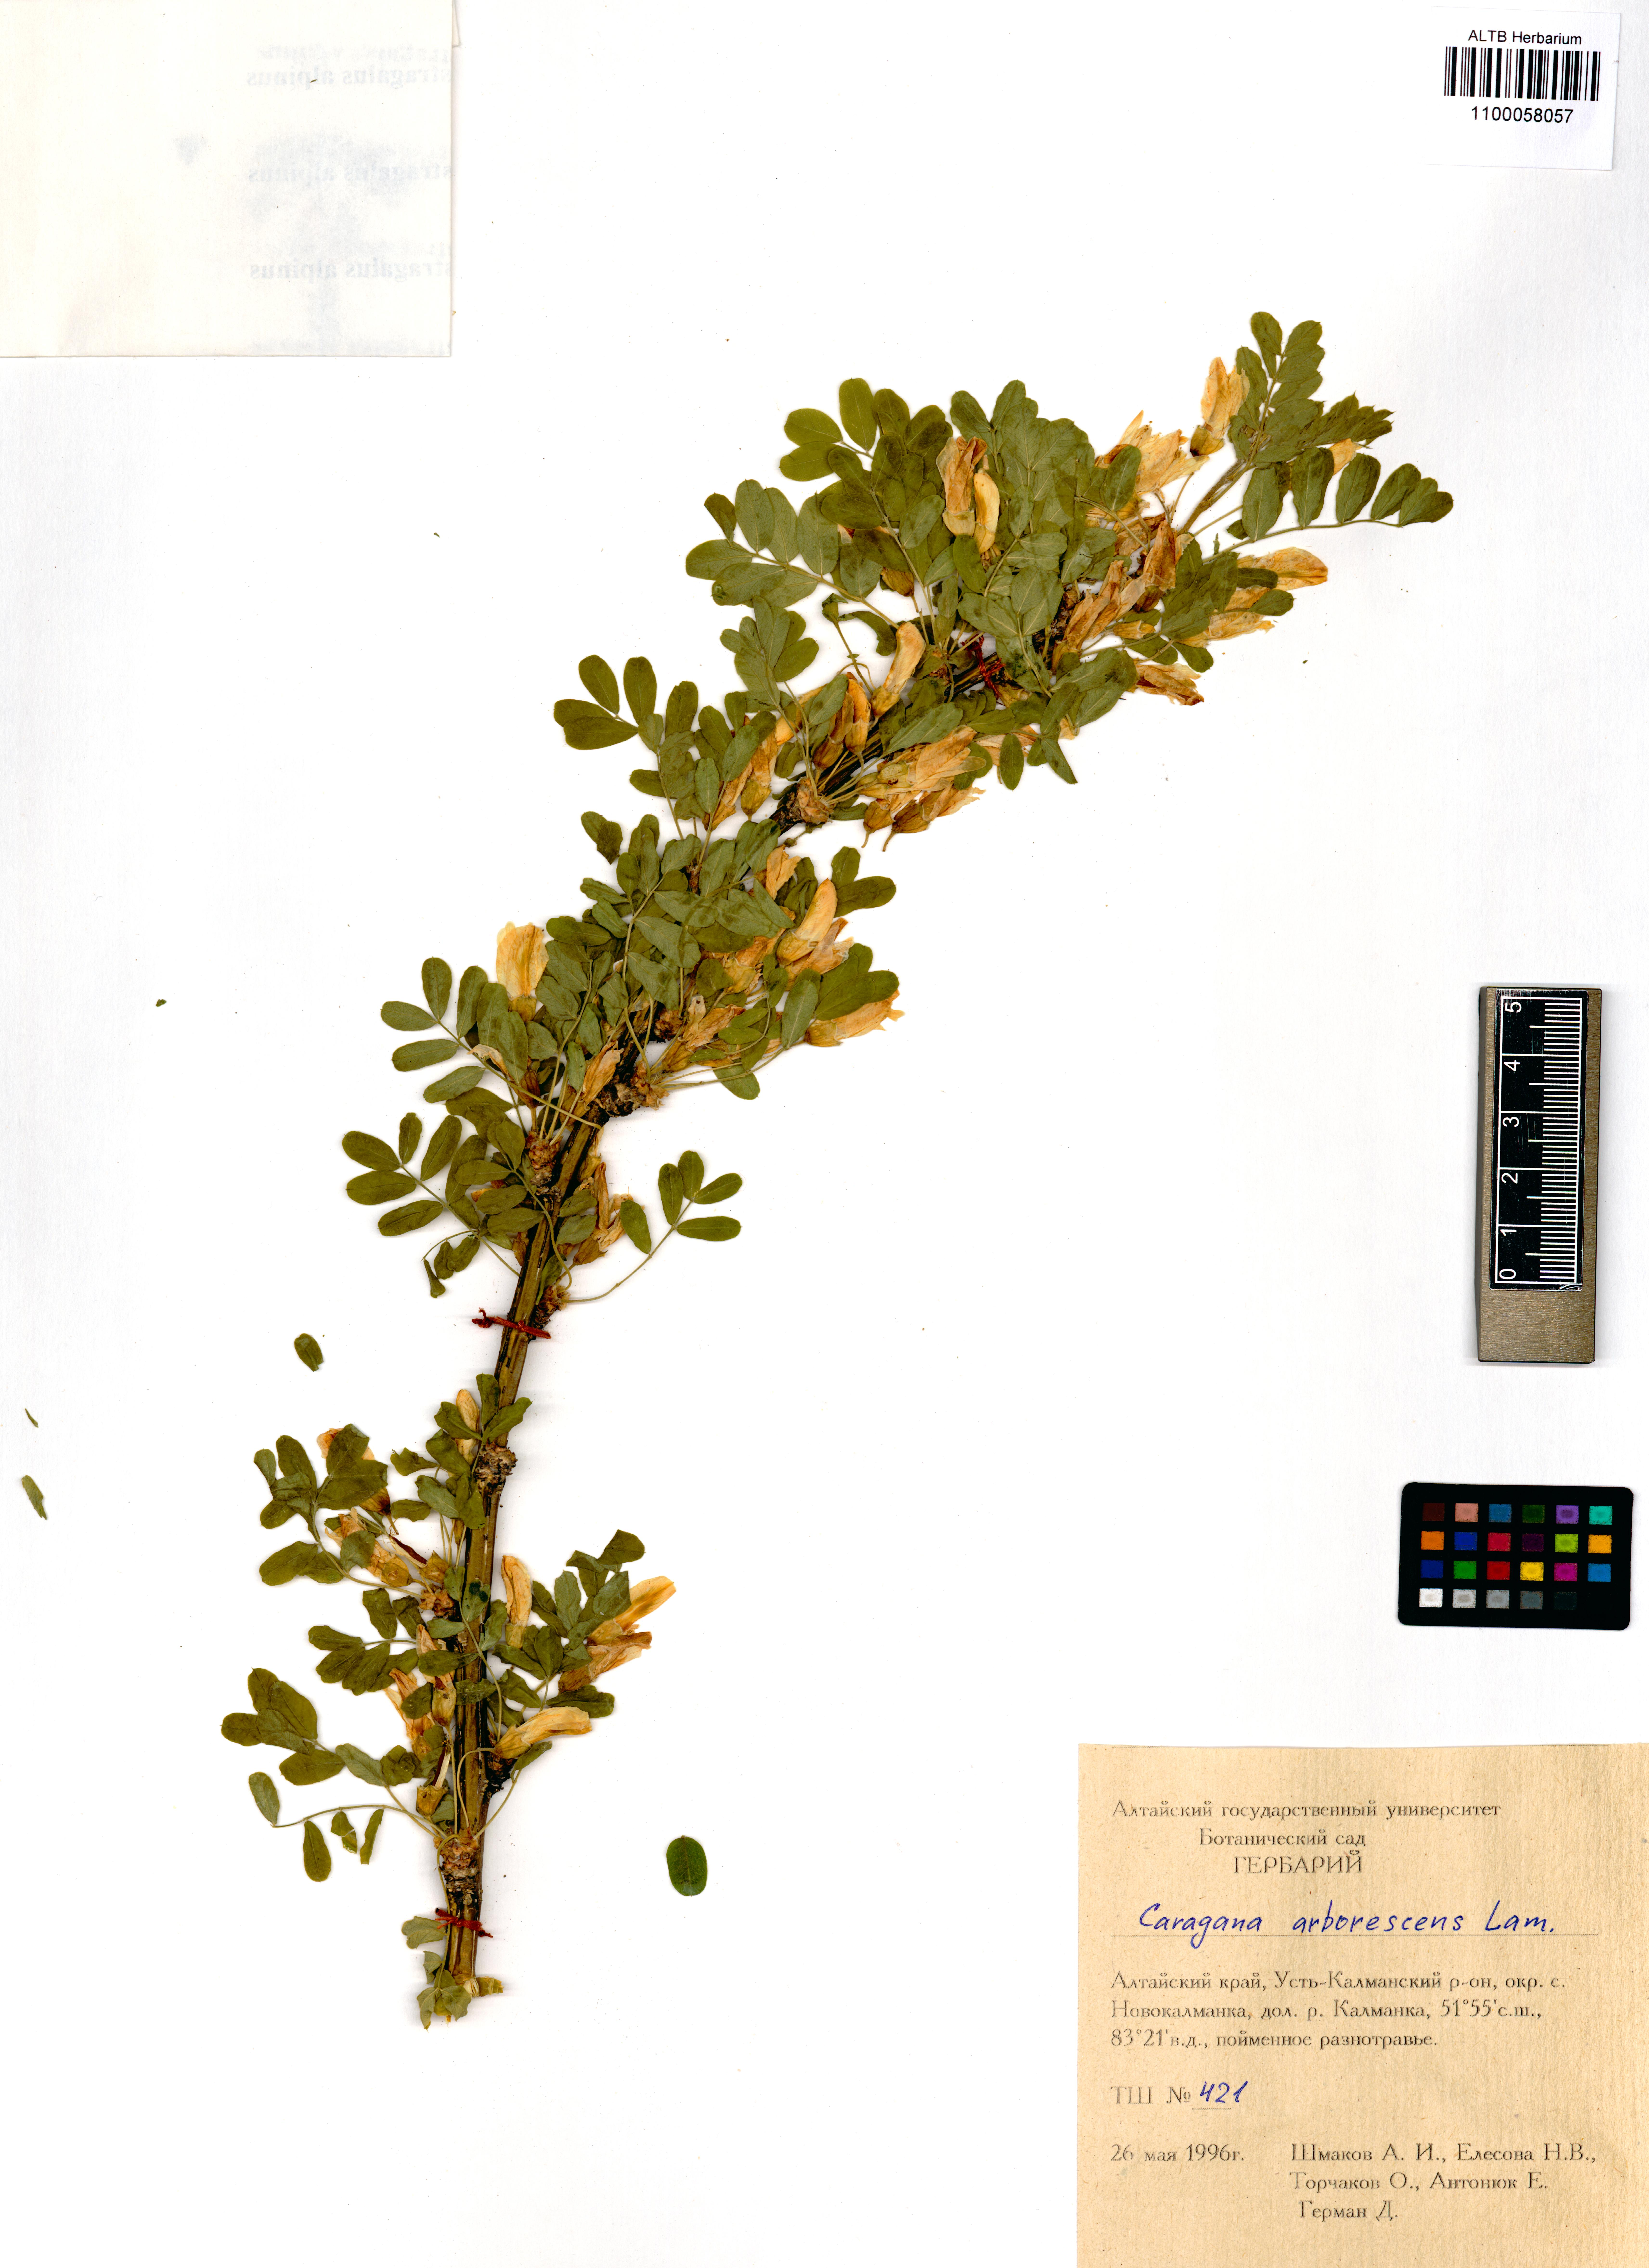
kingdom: Plantae
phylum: Tracheophyta
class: Magnoliopsida
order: Fabales
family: Fabaceae
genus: Caragana
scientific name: Caragana arborescens
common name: Siberian peashrub
